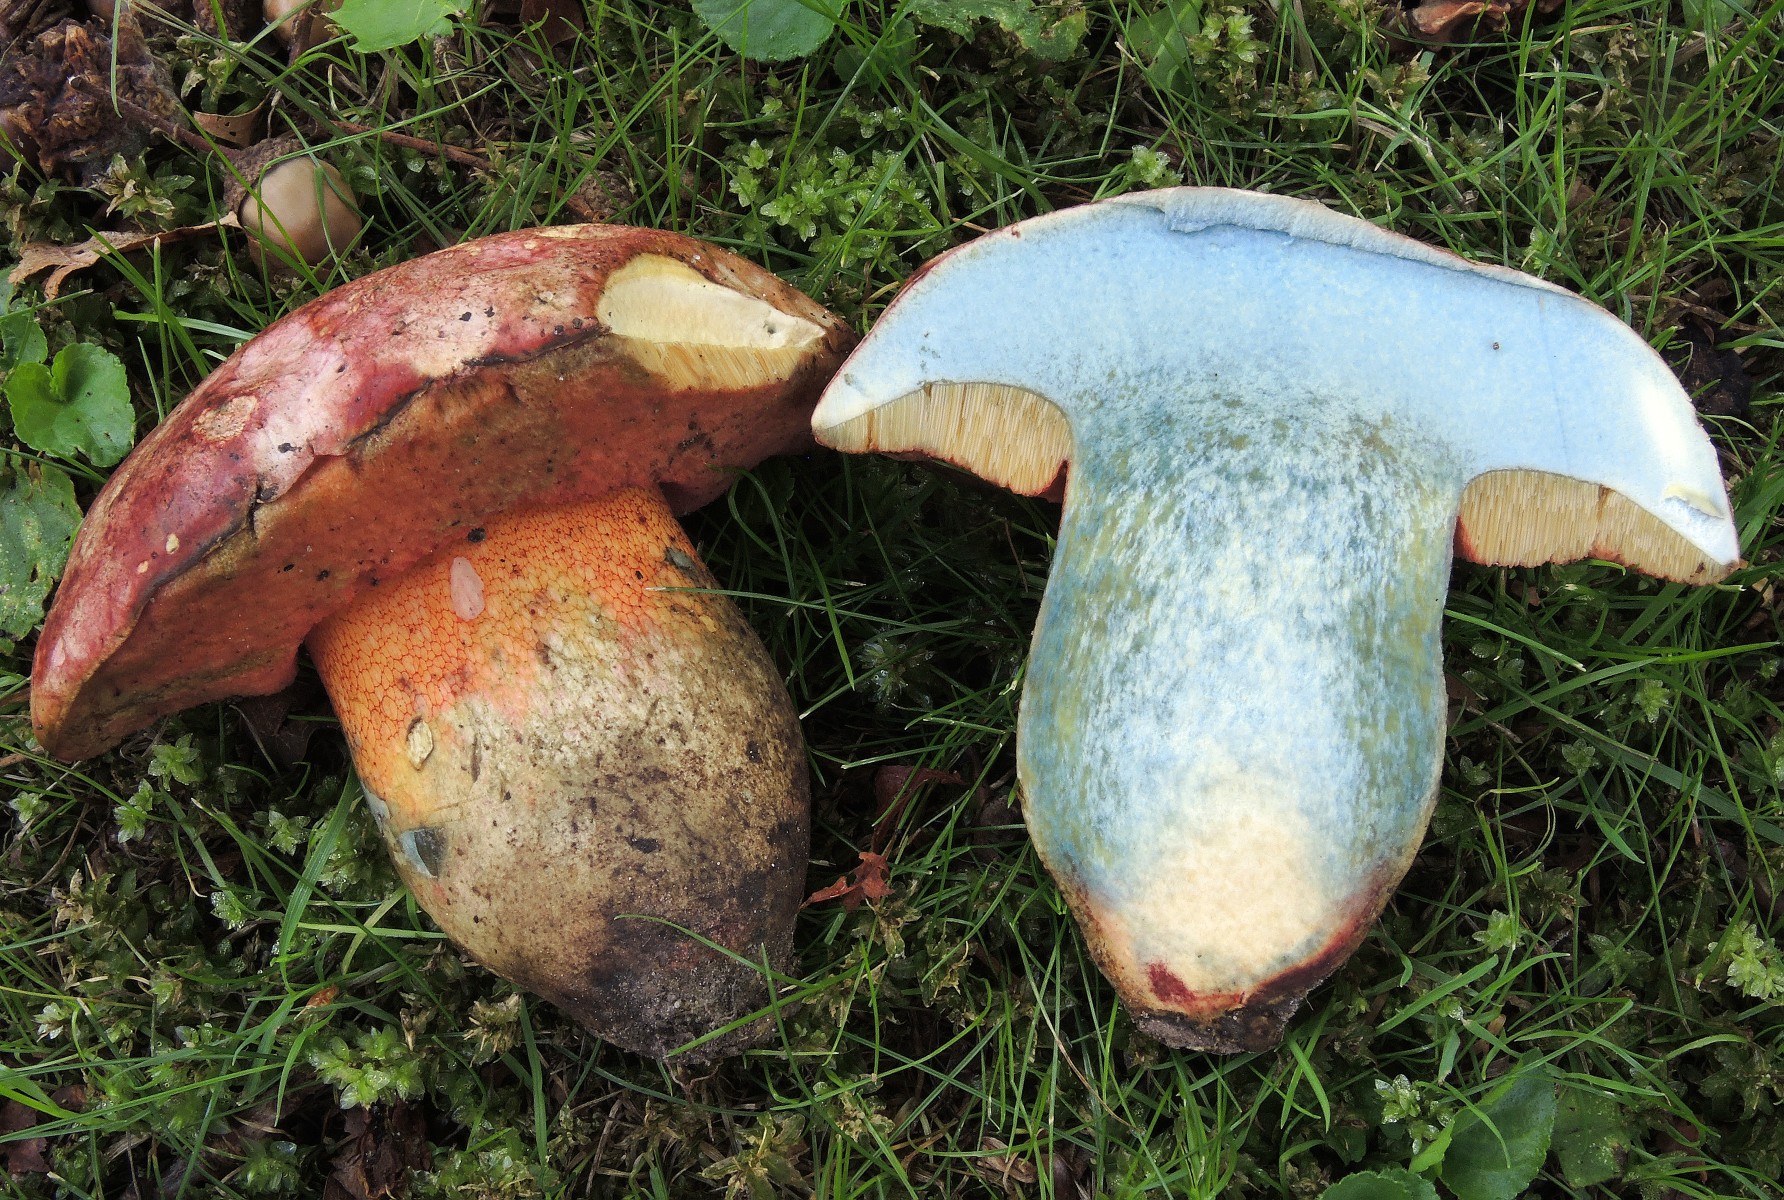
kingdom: Fungi
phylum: Basidiomycota
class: Agaricomycetes
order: Boletales
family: Boletaceae
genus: Rubroboletus
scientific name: Rubroboletus legaliae
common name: djævle-rørhat
